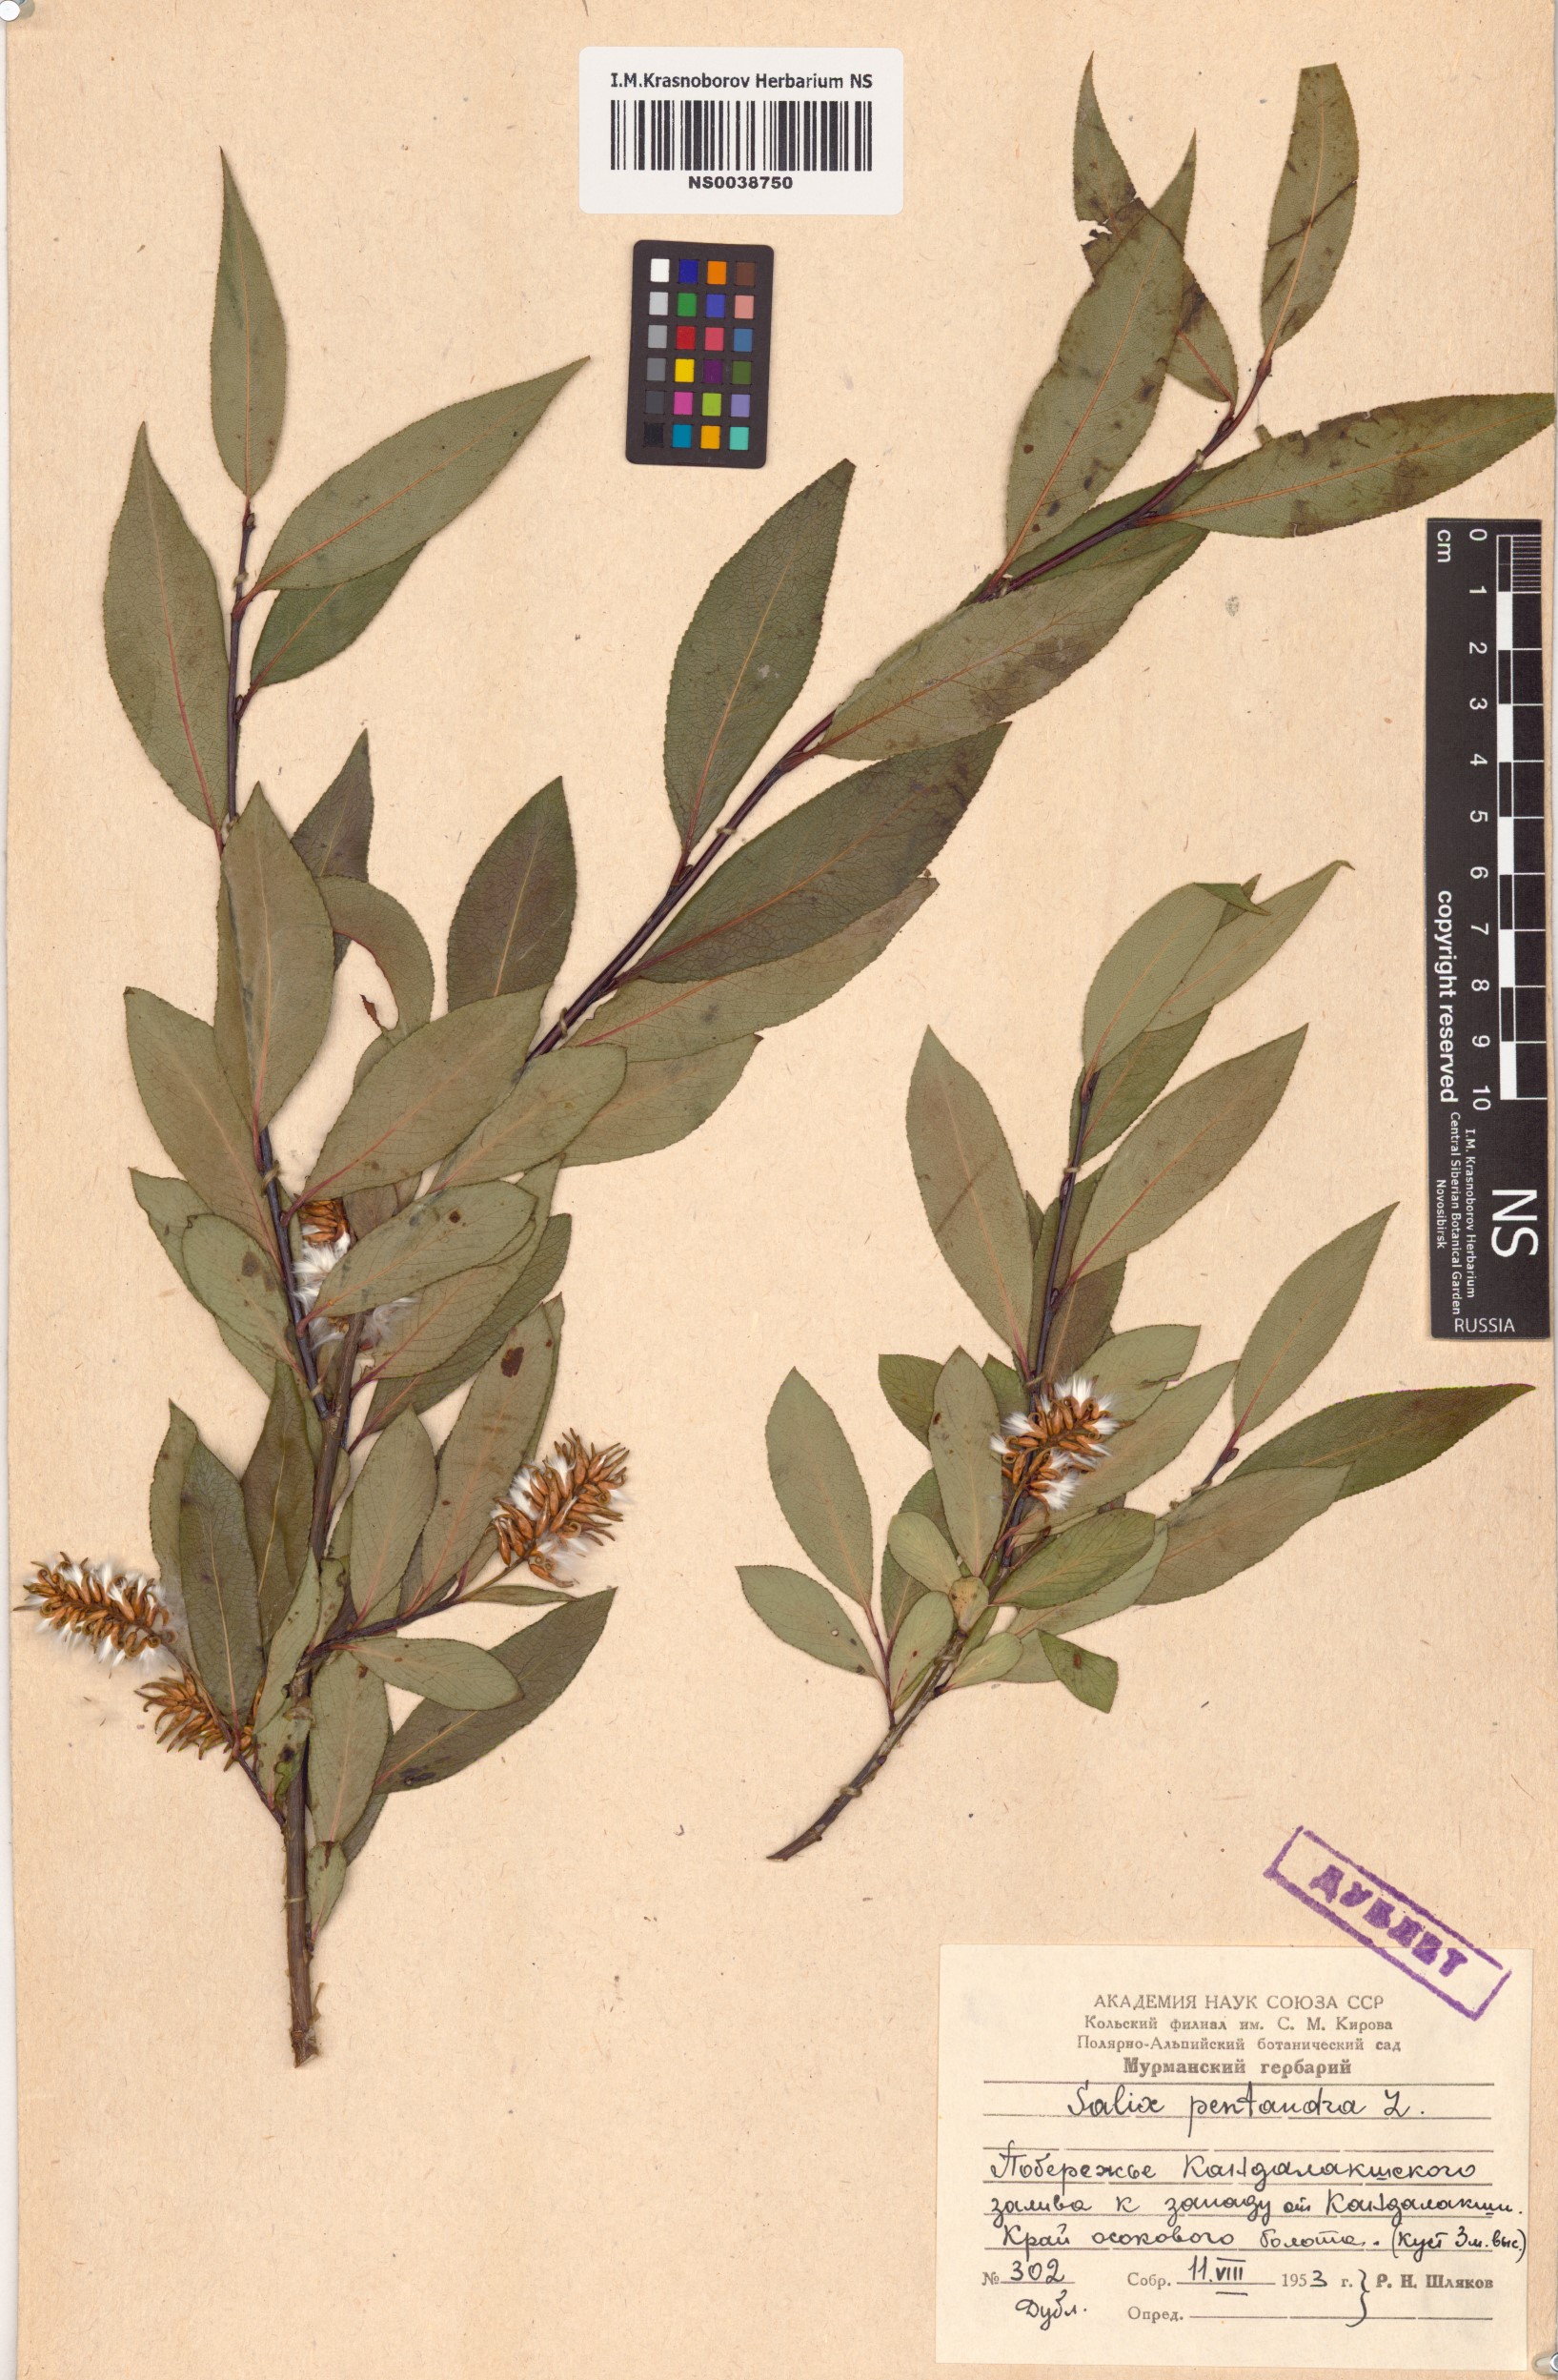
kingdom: Plantae
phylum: Tracheophyta
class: Magnoliopsida
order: Malpighiales
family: Salicaceae
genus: Salix
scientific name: Salix pentandra
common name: Bay willow
